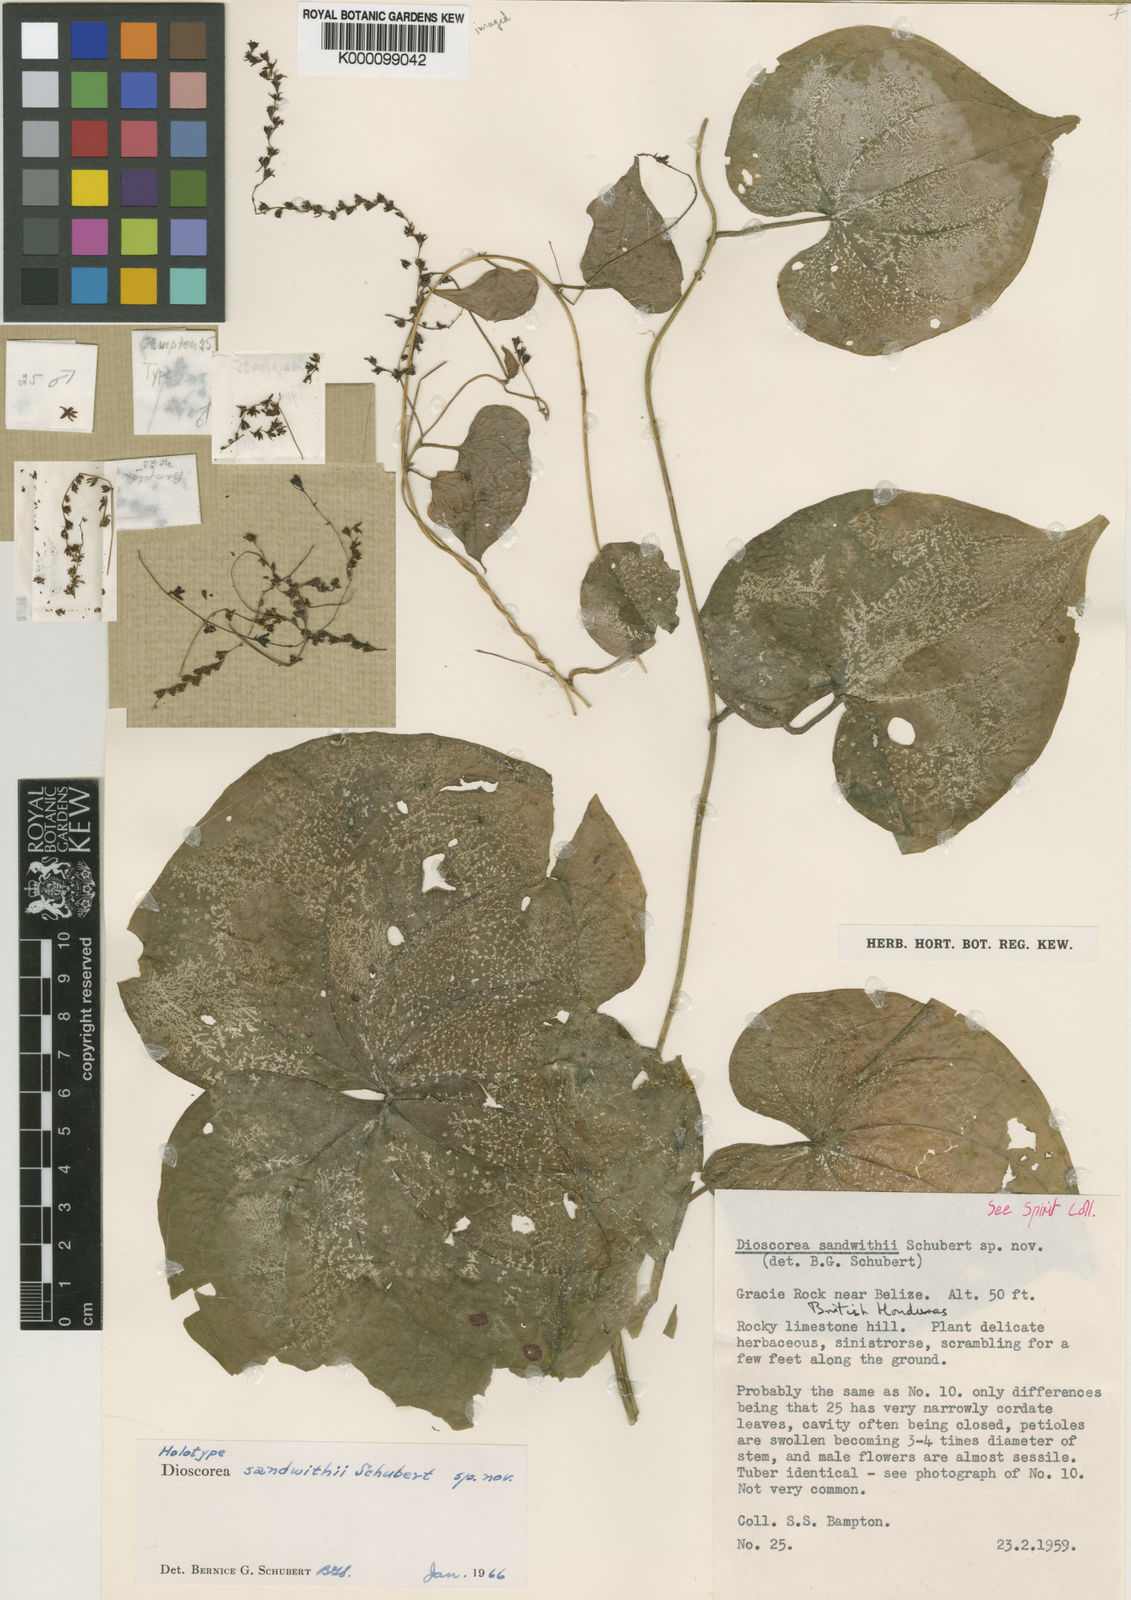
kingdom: Plantae
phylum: Tracheophyta
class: Liliopsida
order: Dioscoreales
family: Dioscoreaceae
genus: Dioscorea
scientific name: Dioscorea sandwithii
